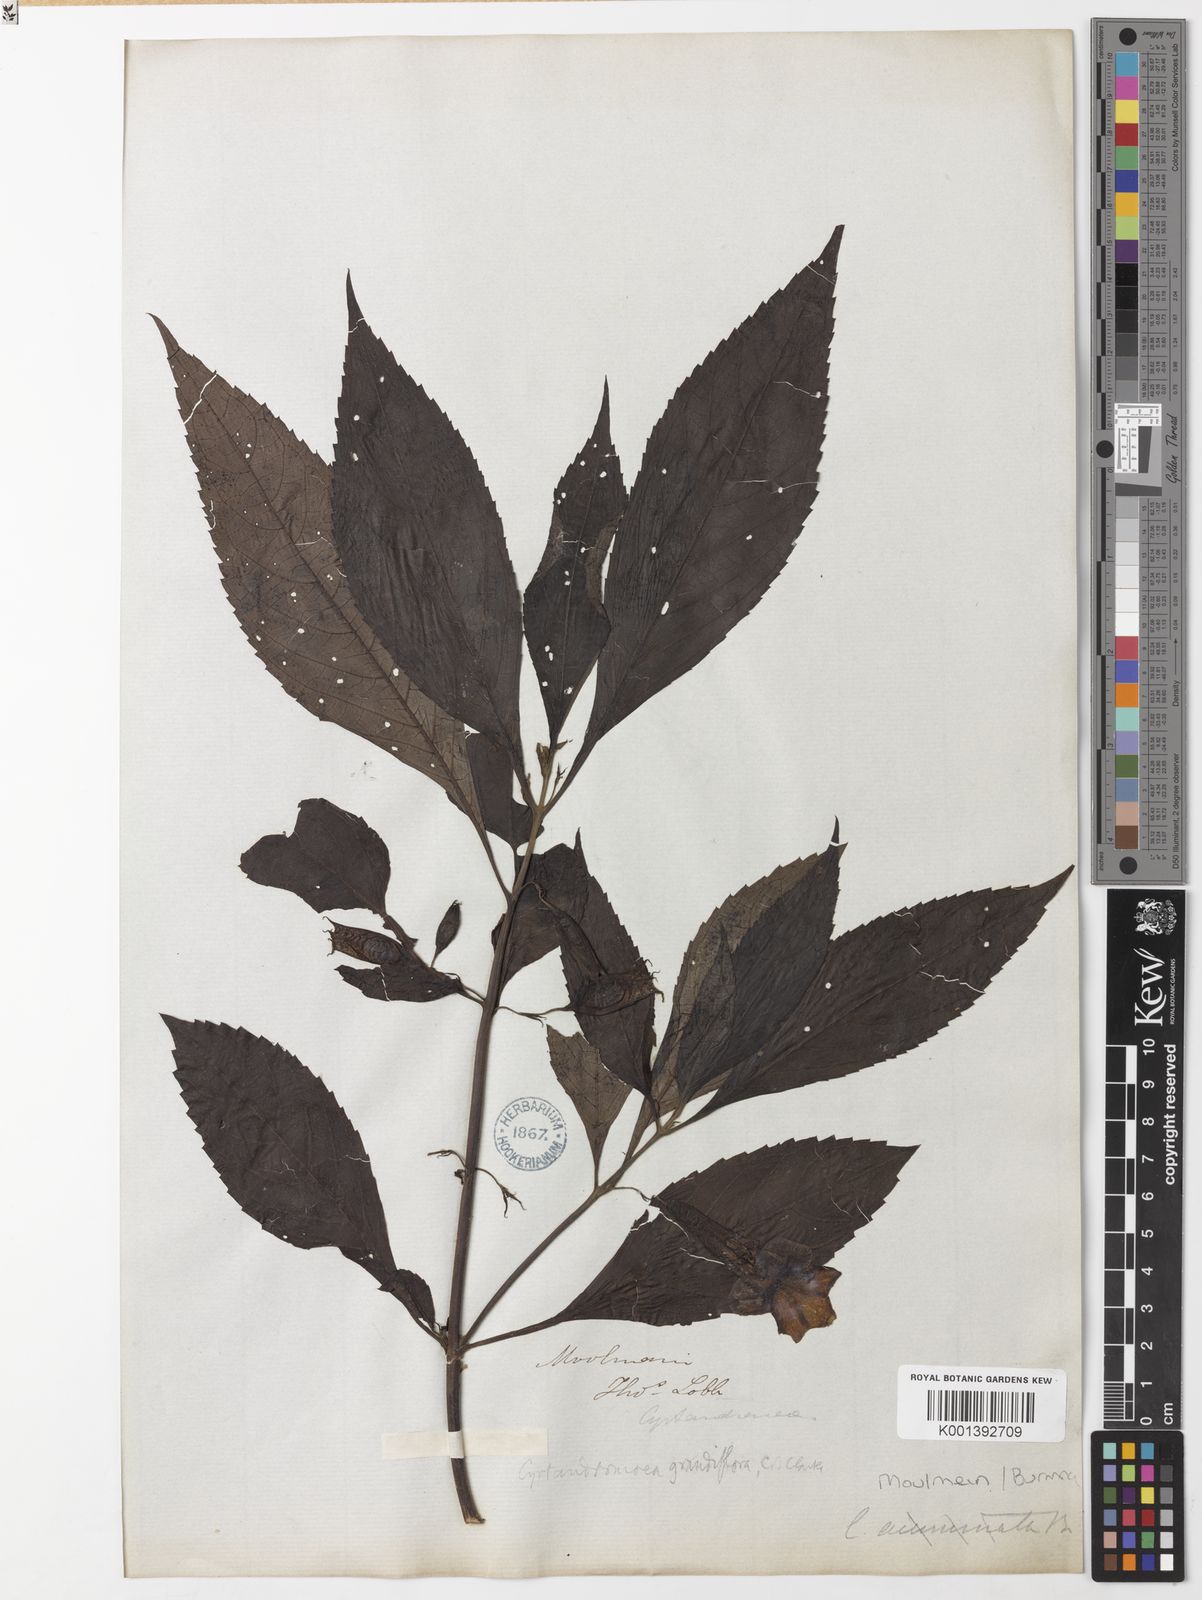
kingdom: Plantae
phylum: Tracheophyta
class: Magnoliopsida
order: Lamiales
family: Phrymaceae
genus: Cyrtandromoea
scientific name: Cyrtandromoea grandiflora
